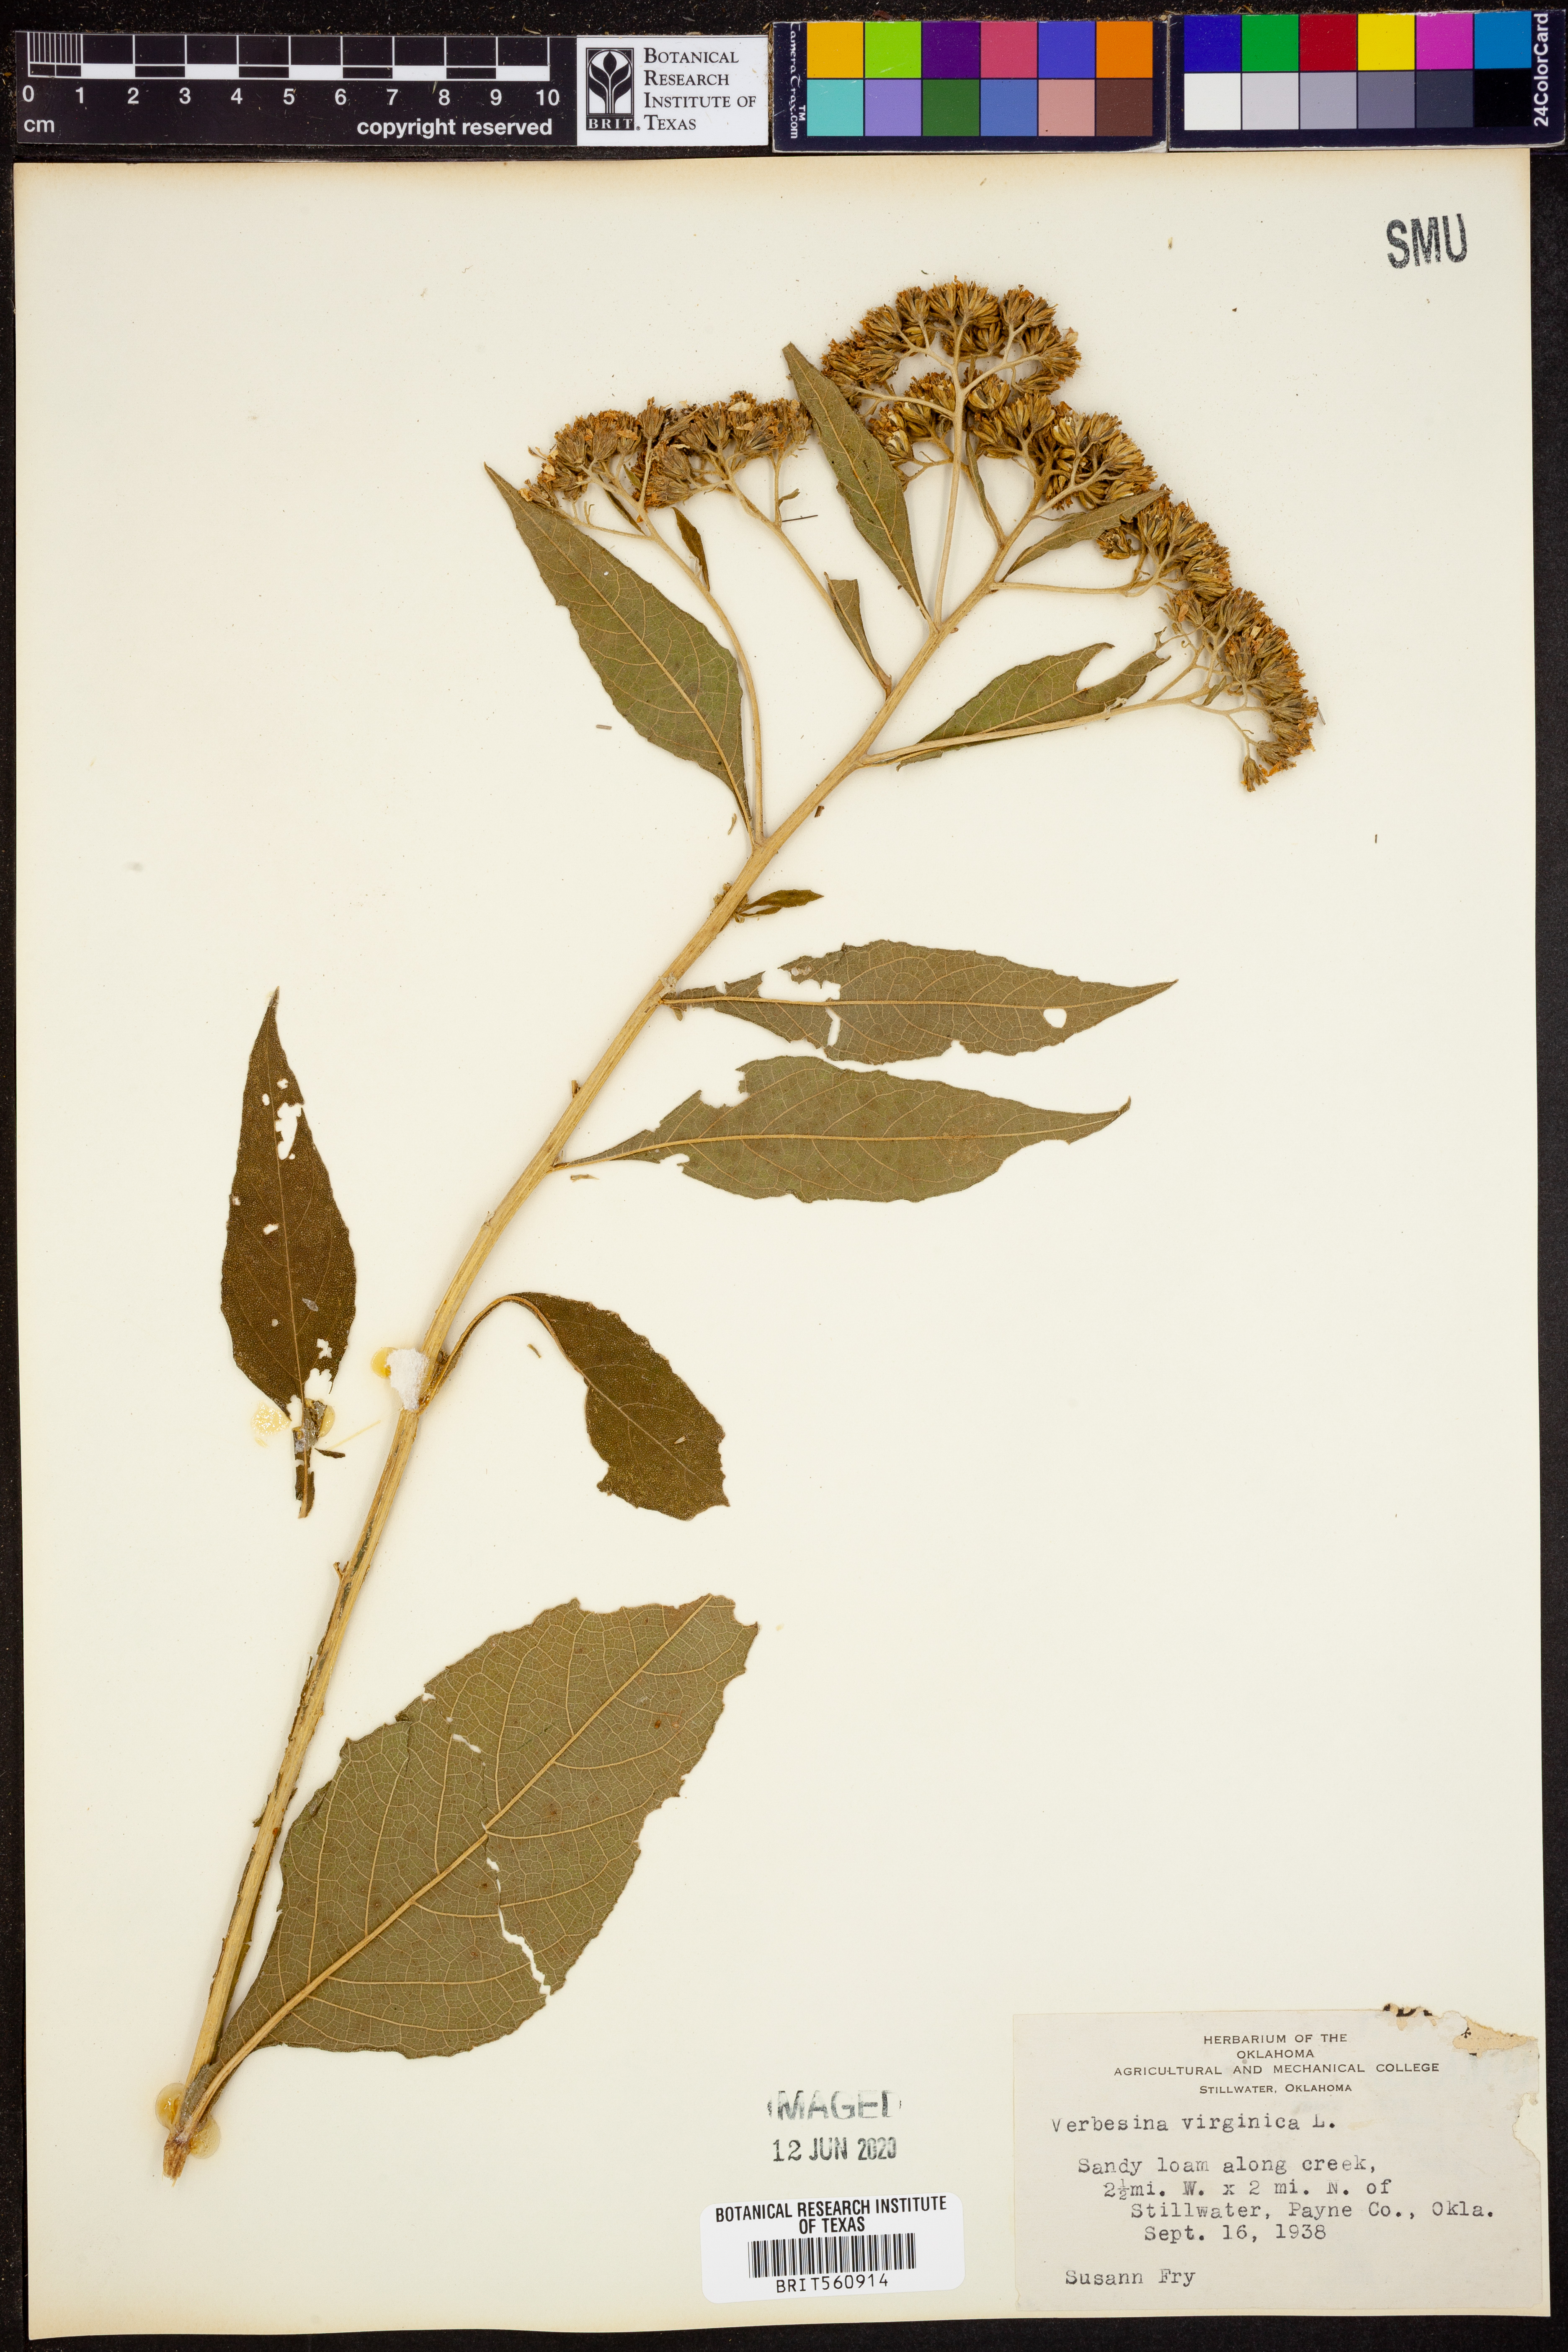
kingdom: Plantae
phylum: Tracheophyta
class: Magnoliopsida
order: Asterales
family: Asteraceae
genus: Verbesina
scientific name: Verbesina virginica
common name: Frostweed
